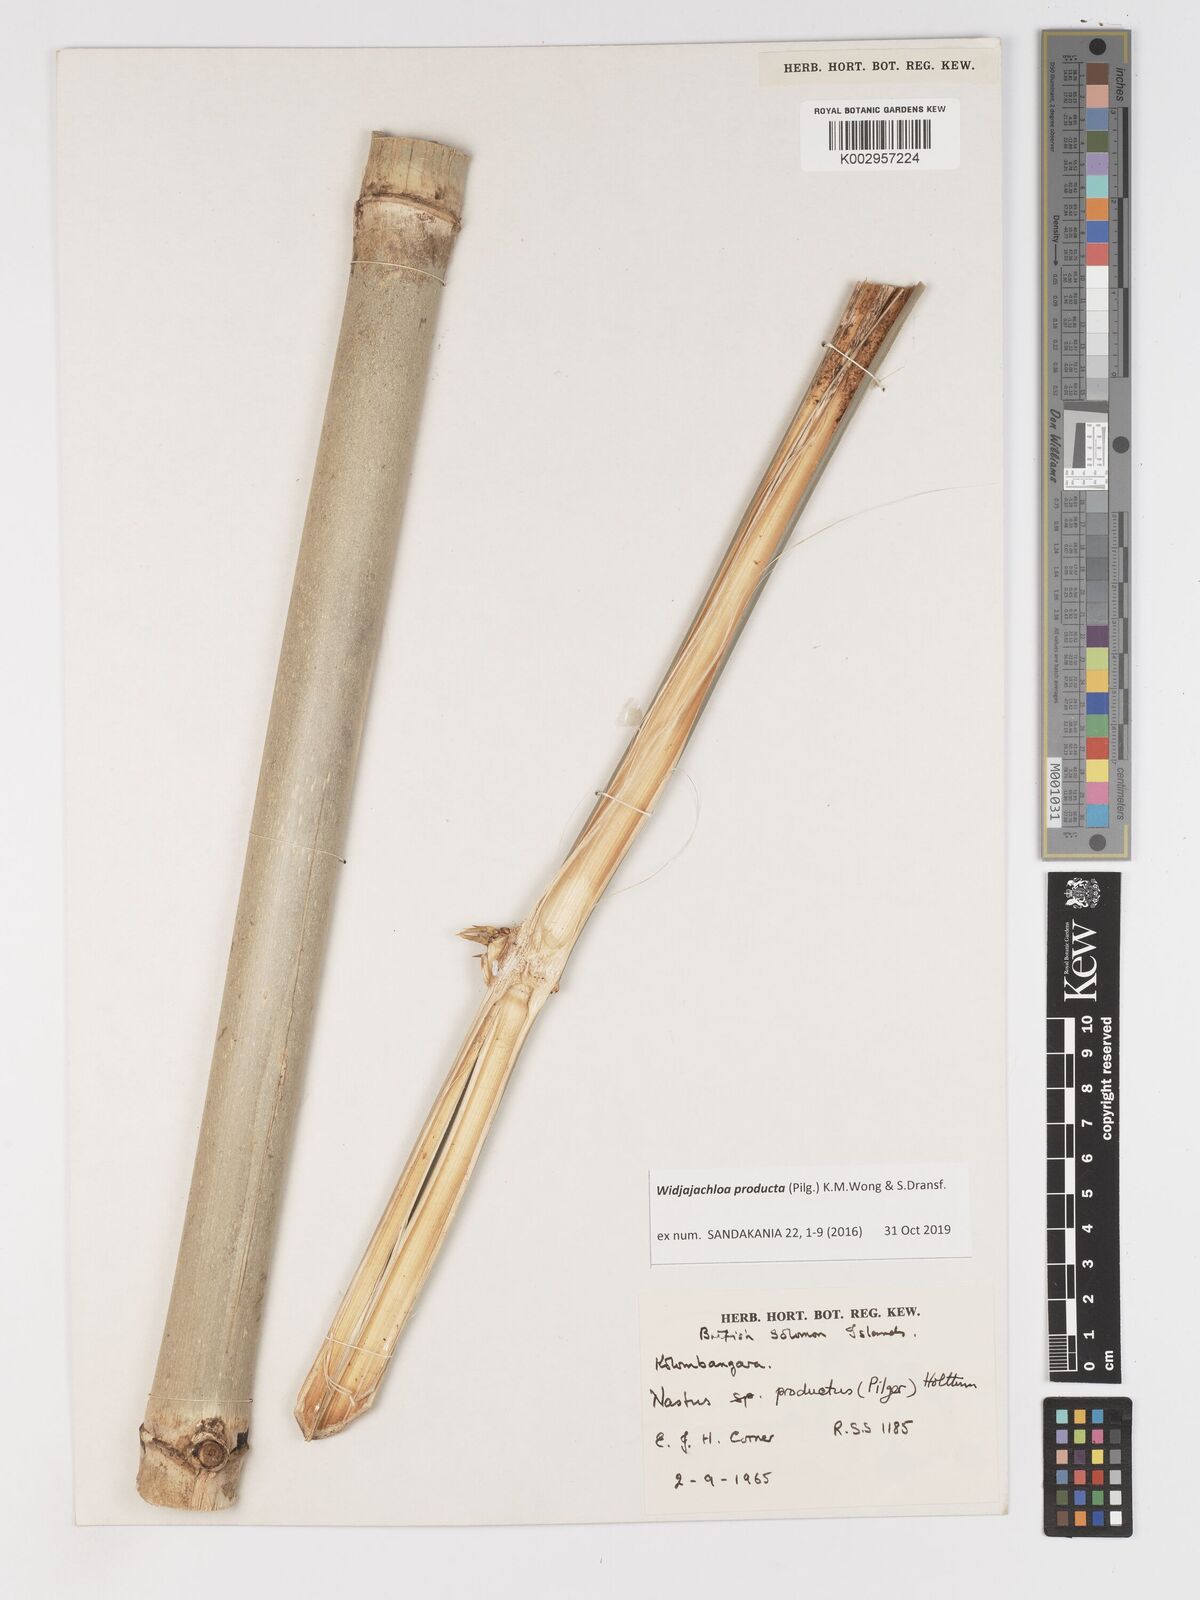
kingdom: Plantae
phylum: Tracheophyta
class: Liliopsida
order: Poales
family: Poaceae
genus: Widjajachloa
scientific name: Widjajachloa
